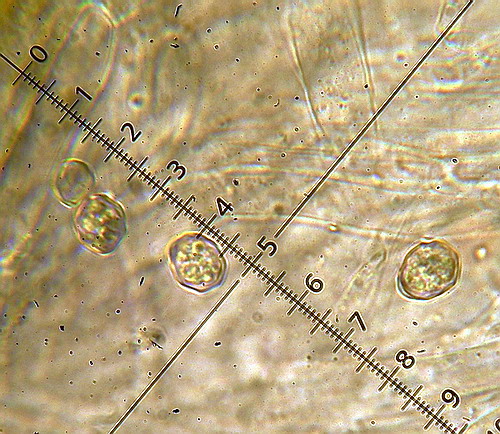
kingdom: Fungi
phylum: Basidiomycota
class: Agaricomycetes
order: Agaricales
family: Entolomataceae
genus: Entoloma
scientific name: Entoloma clypeatum
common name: flammet rødblad
